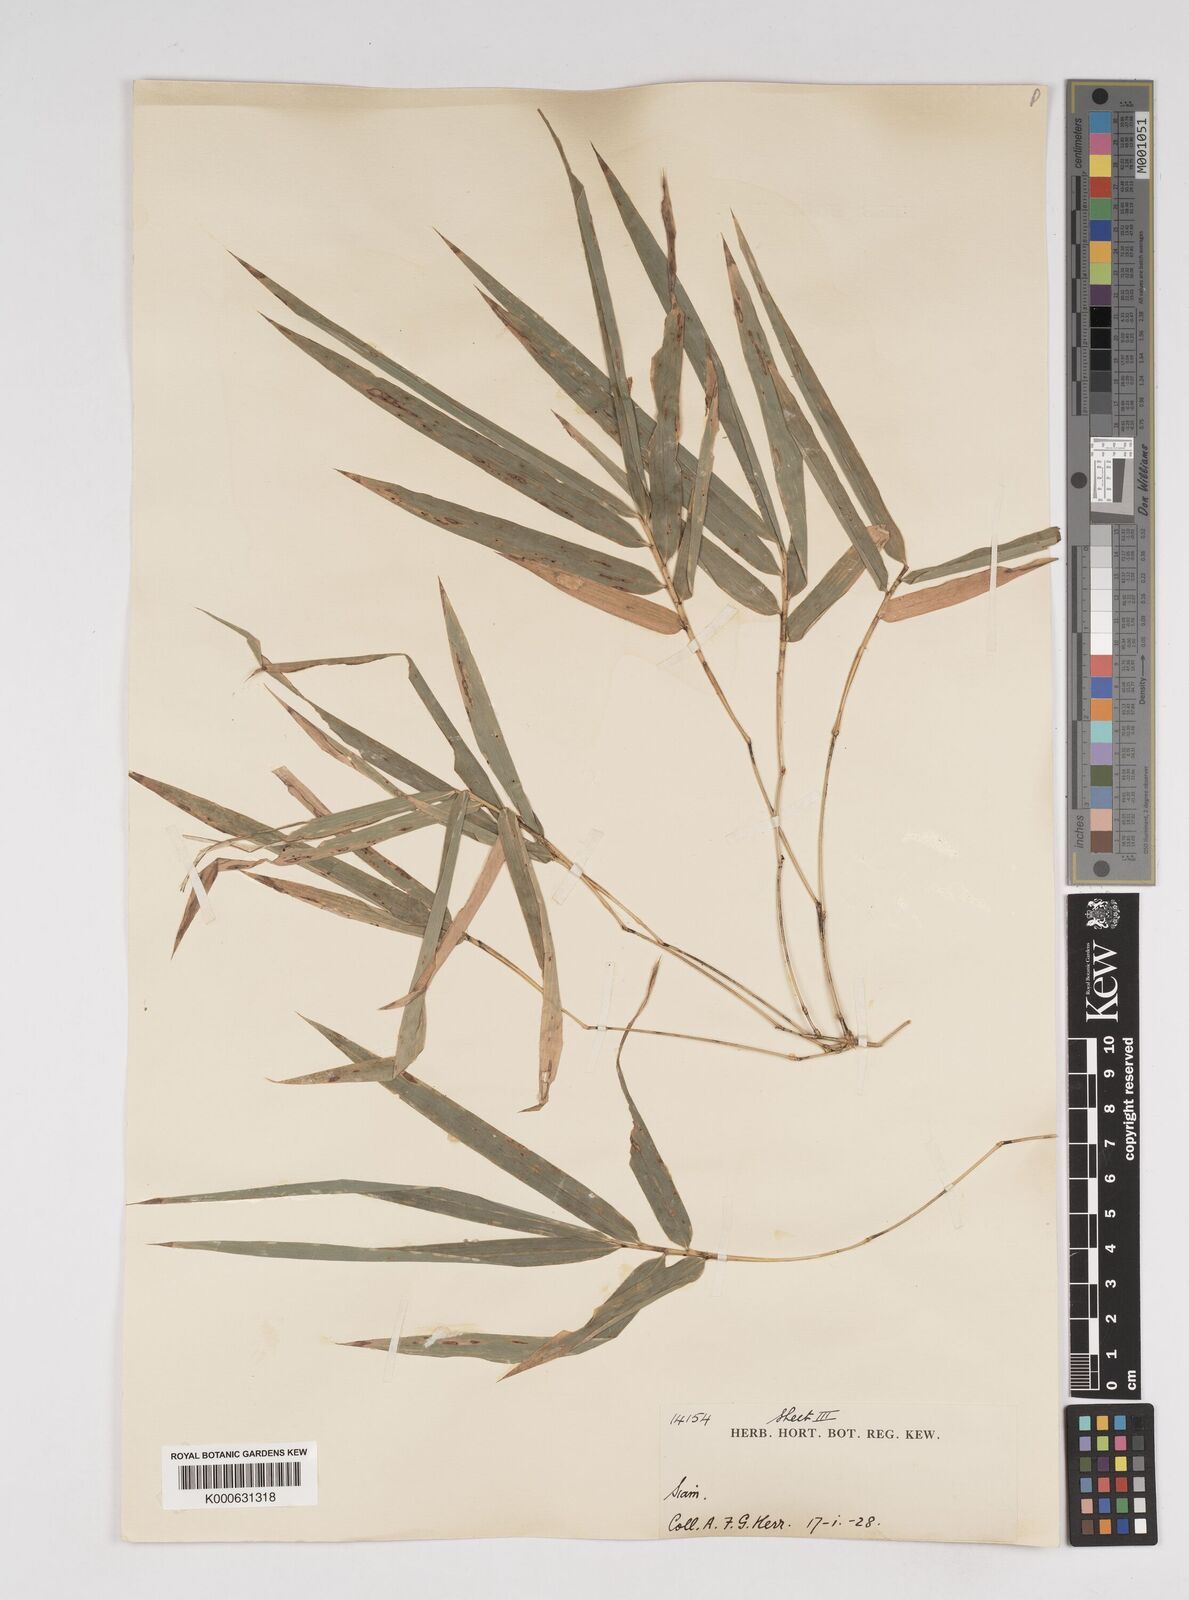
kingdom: Plantae
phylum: Tracheophyta
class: Liliopsida
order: Poales
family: Poaceae
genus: Dendrocalamus
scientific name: Dendrocalamus dumosus
